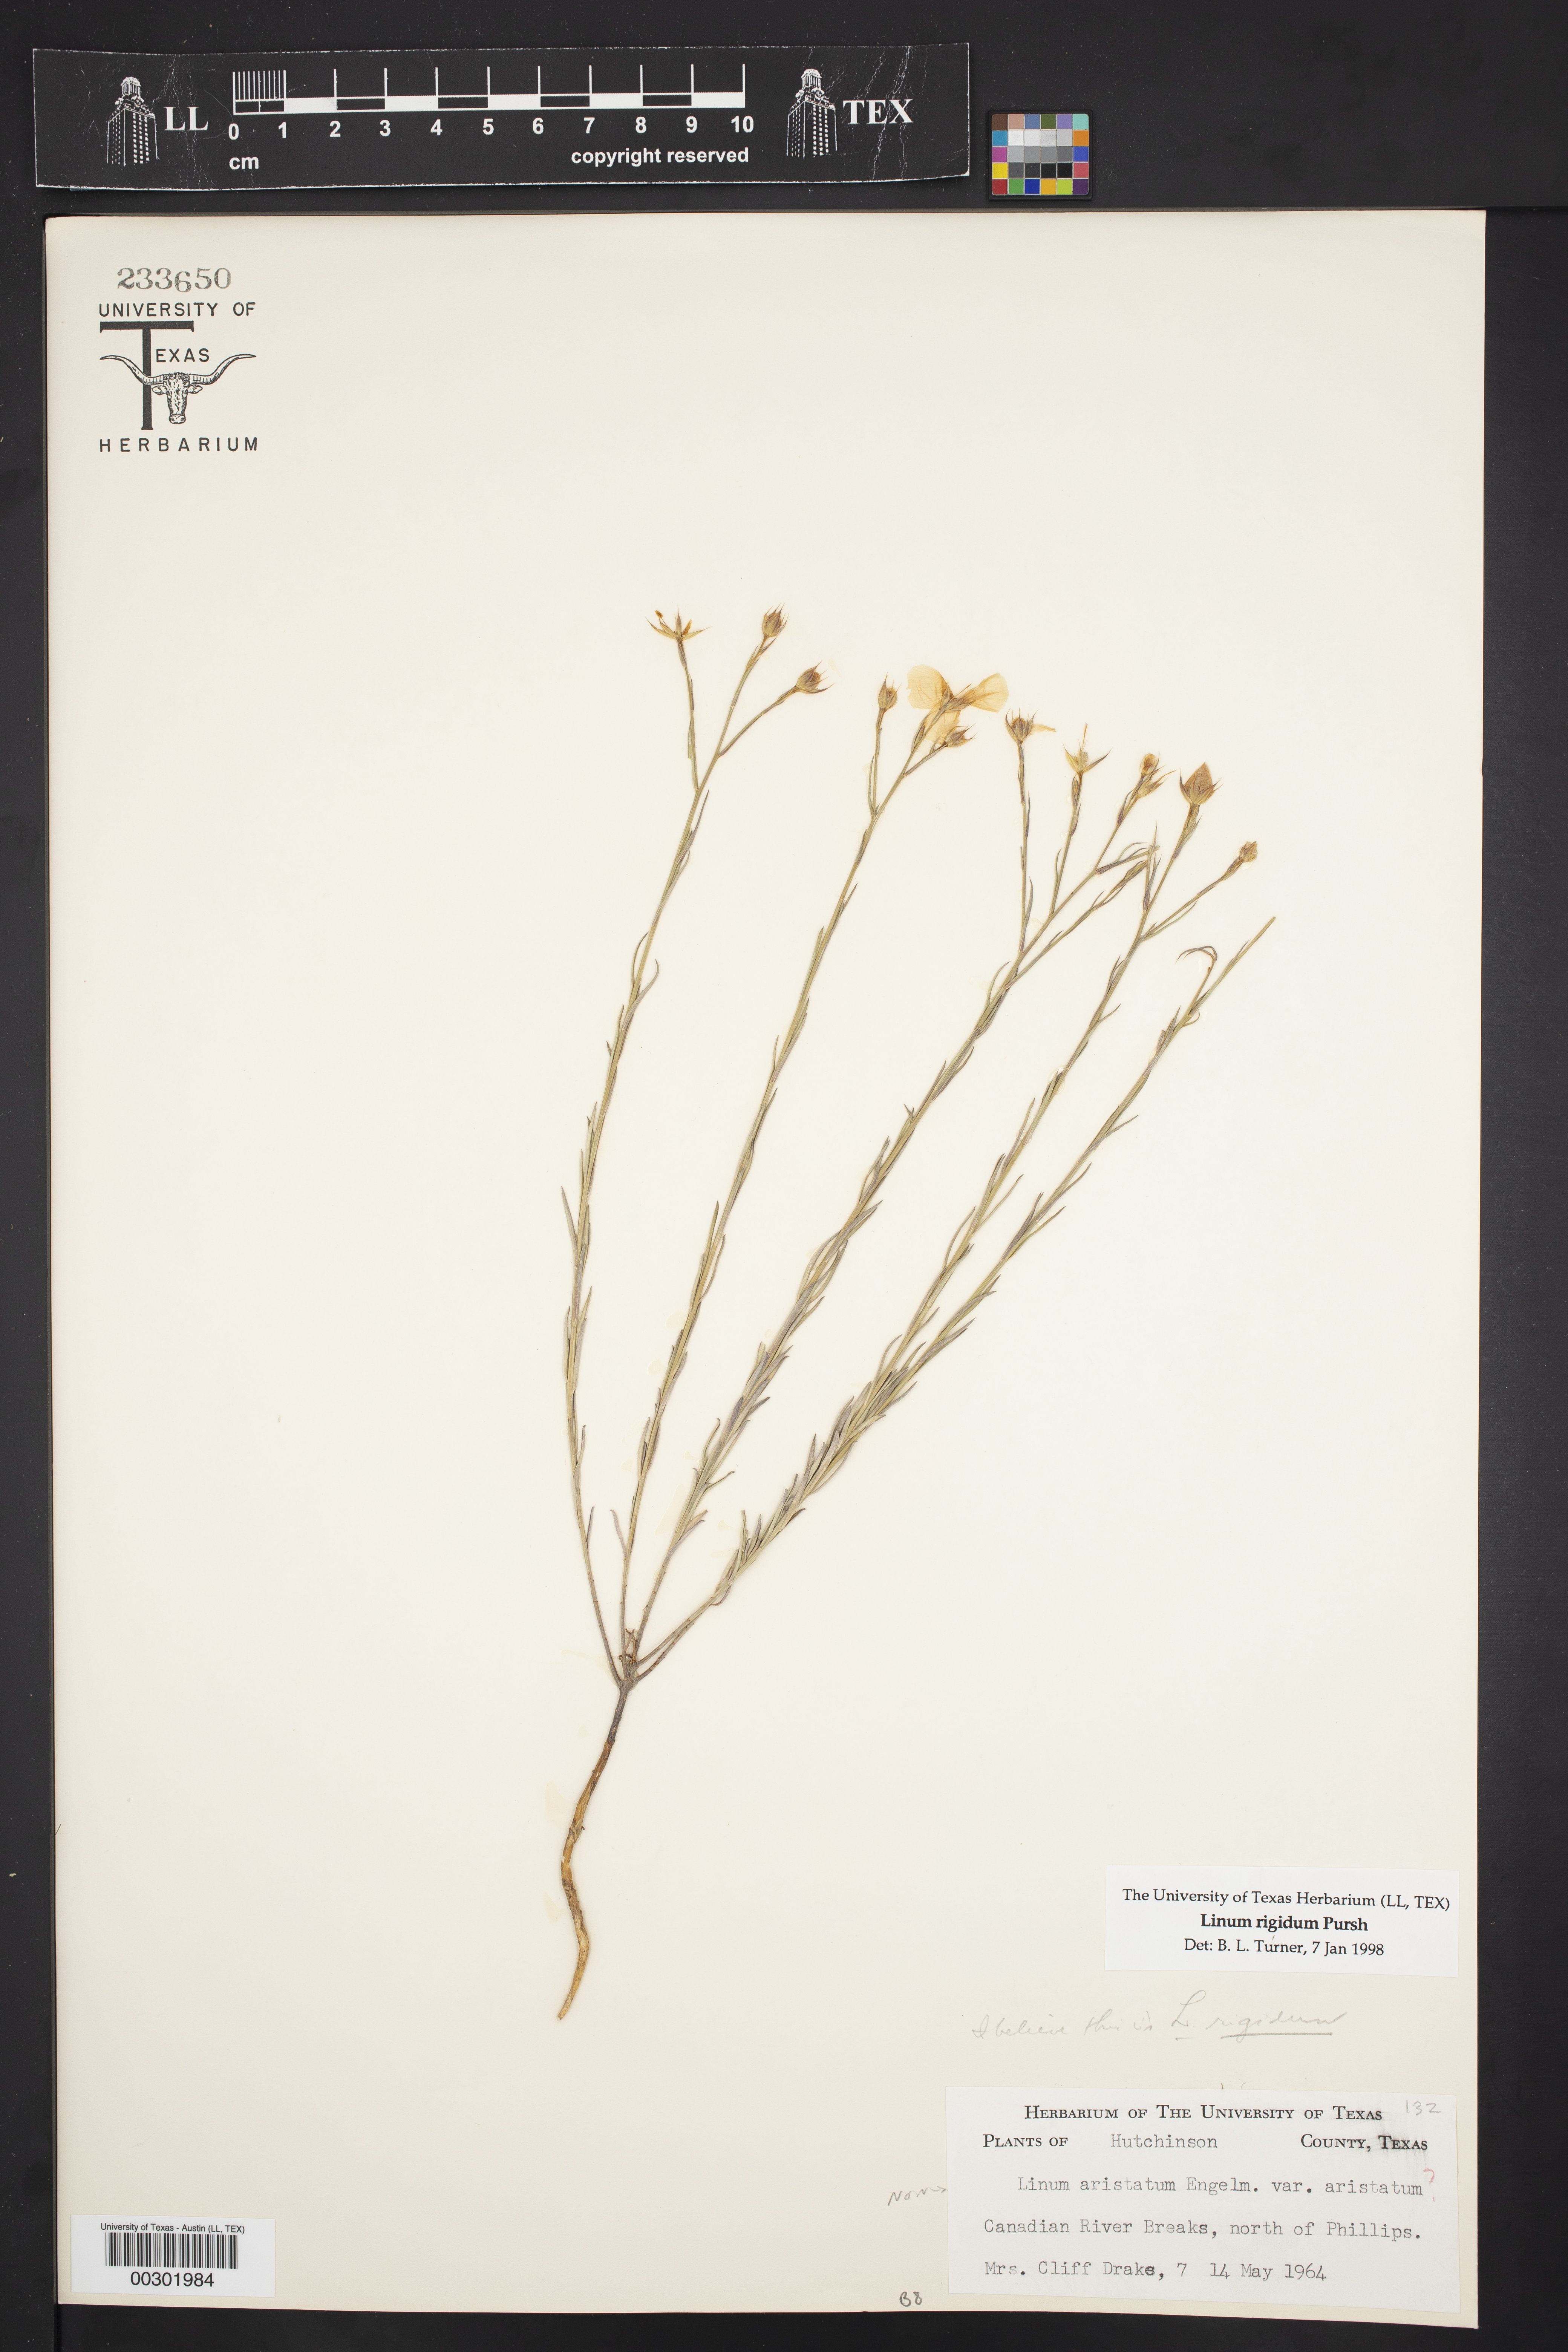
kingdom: Plantae
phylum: Tracheophyta
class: Magnoliopsida
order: Malpighiales
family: Linaceae
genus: Linum
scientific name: Linum rigidum
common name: Stiff-stem flax
